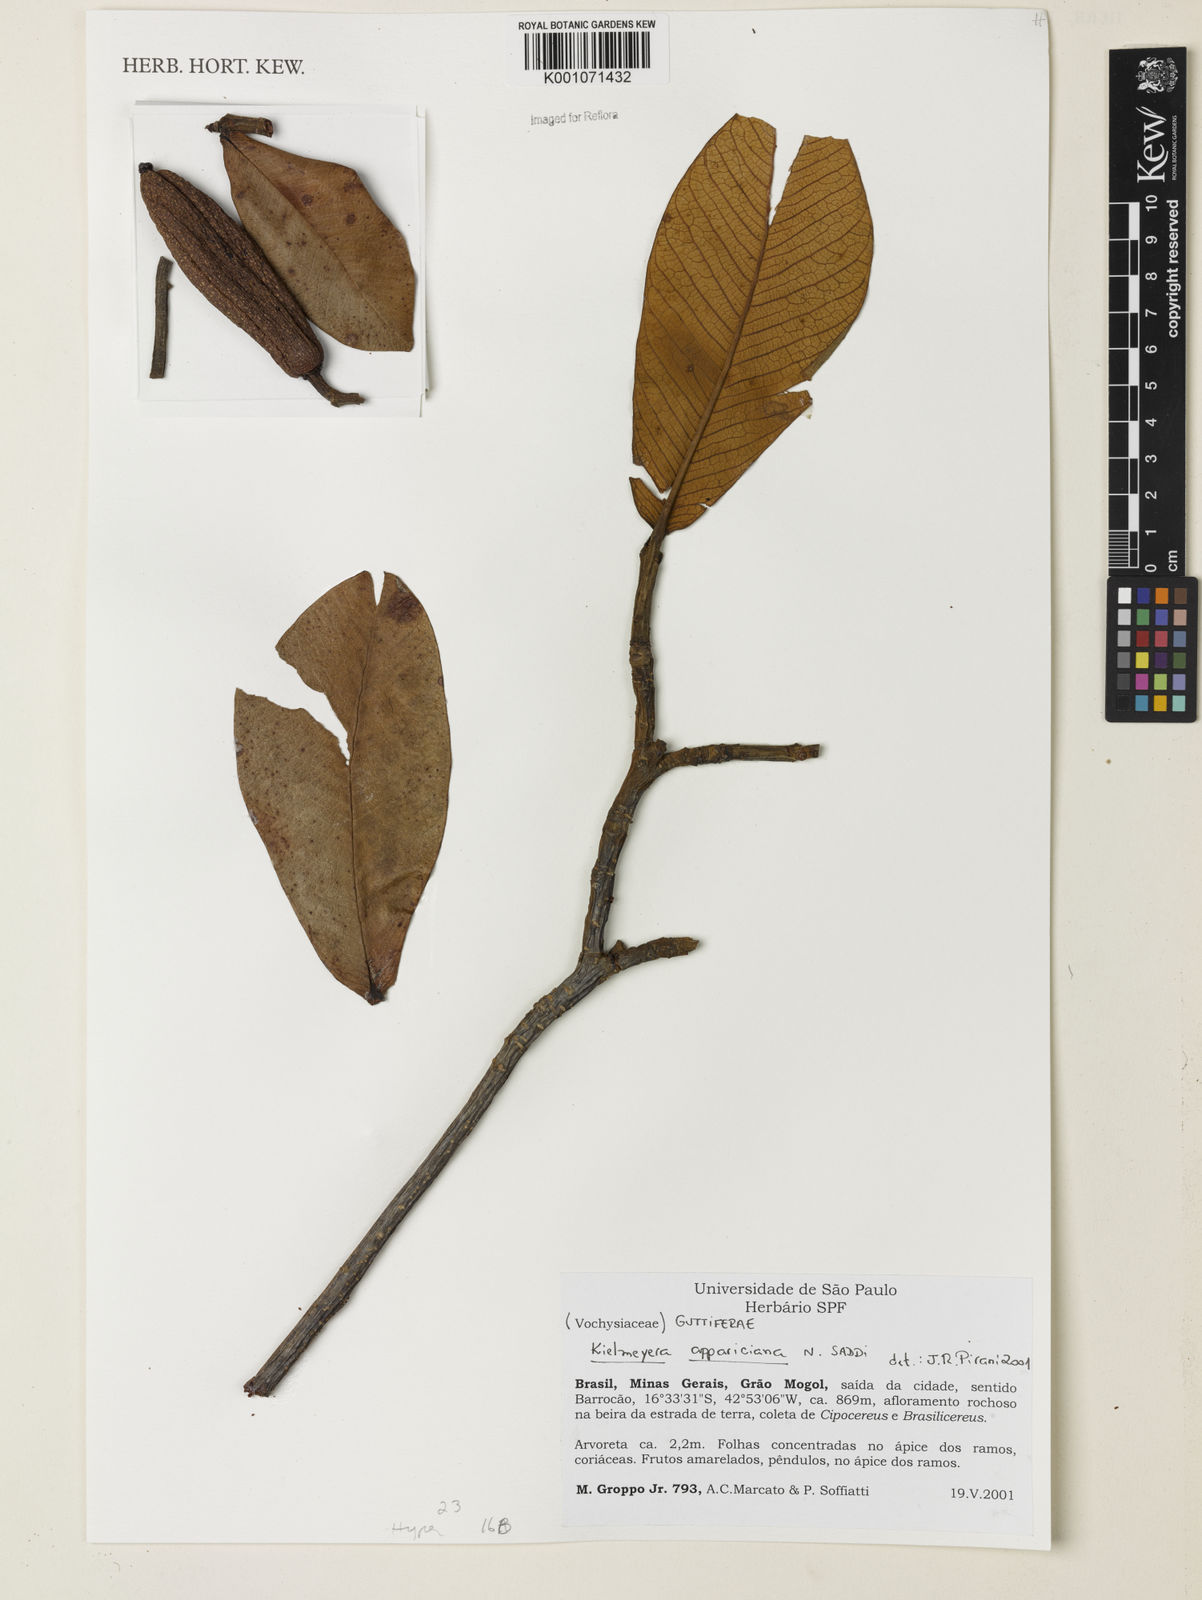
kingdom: Plantae
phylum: Tracheophyta
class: Magnoliopsida
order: Malpighiales
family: Calophyllaceae
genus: Kielmeyera
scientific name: Kielmeyera appariciana
